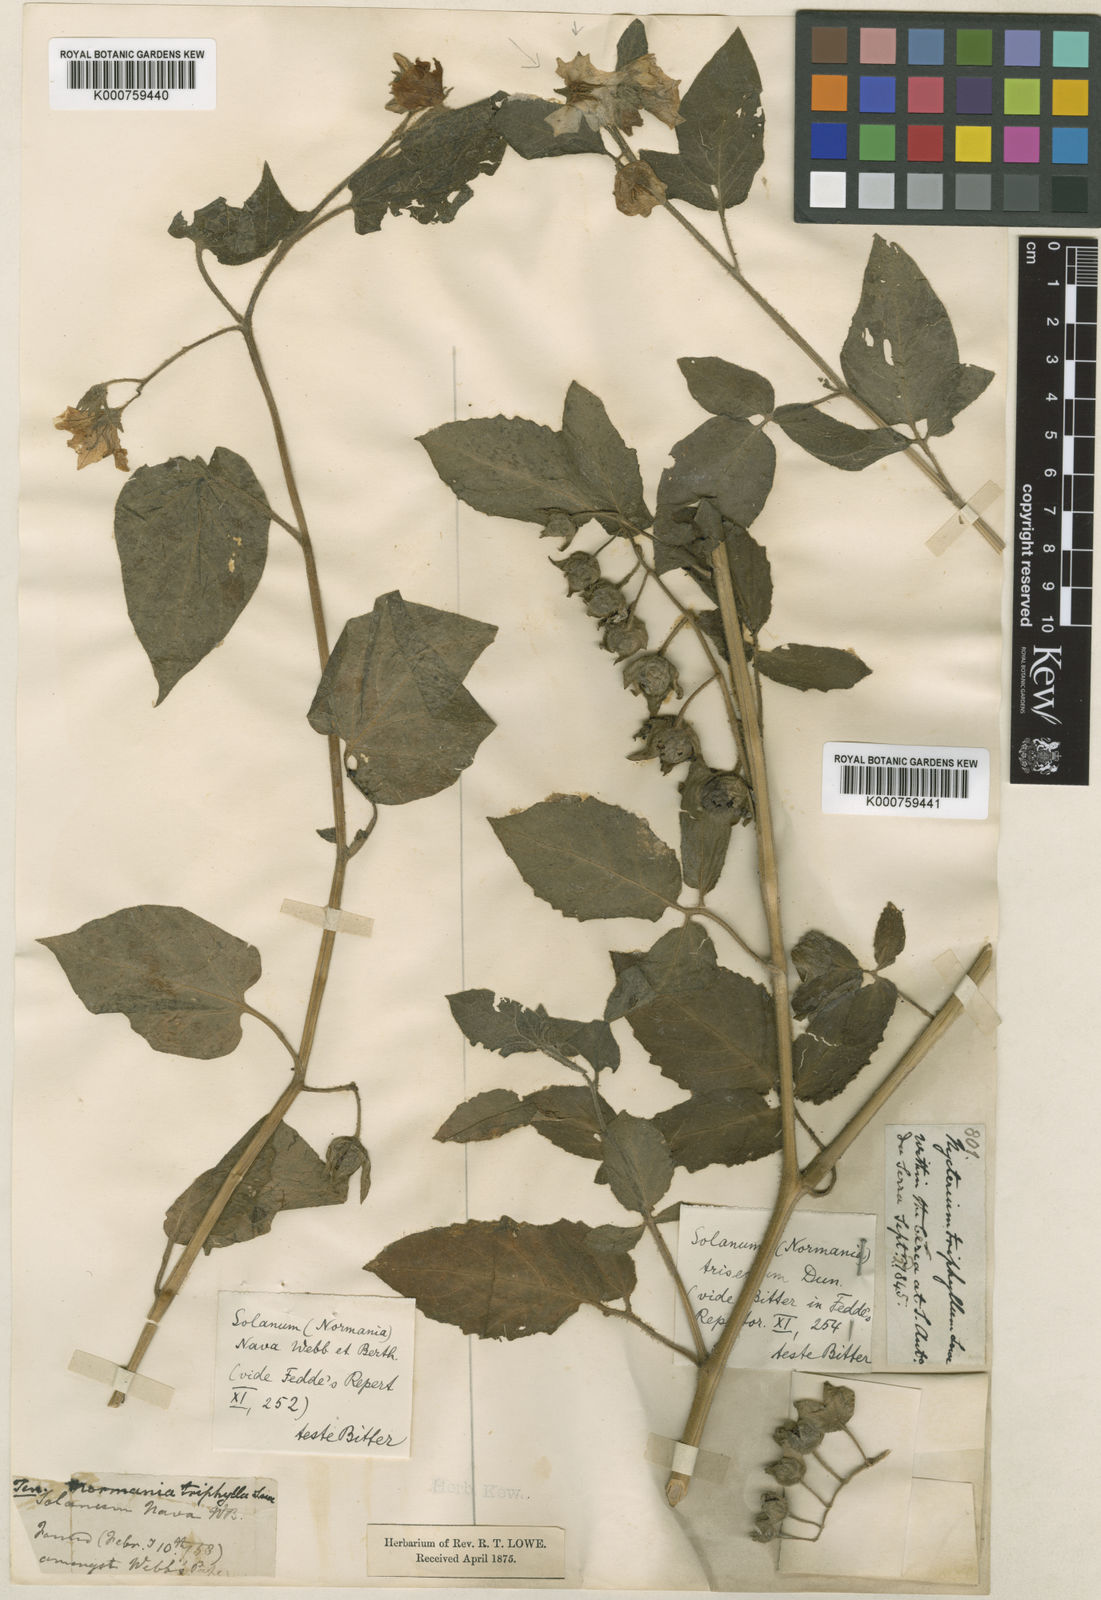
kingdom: Plantae
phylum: Tracheophyta
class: Magnoliopsida
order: Solanales
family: Solanaceae
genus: Solanum
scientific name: Solanum nava
